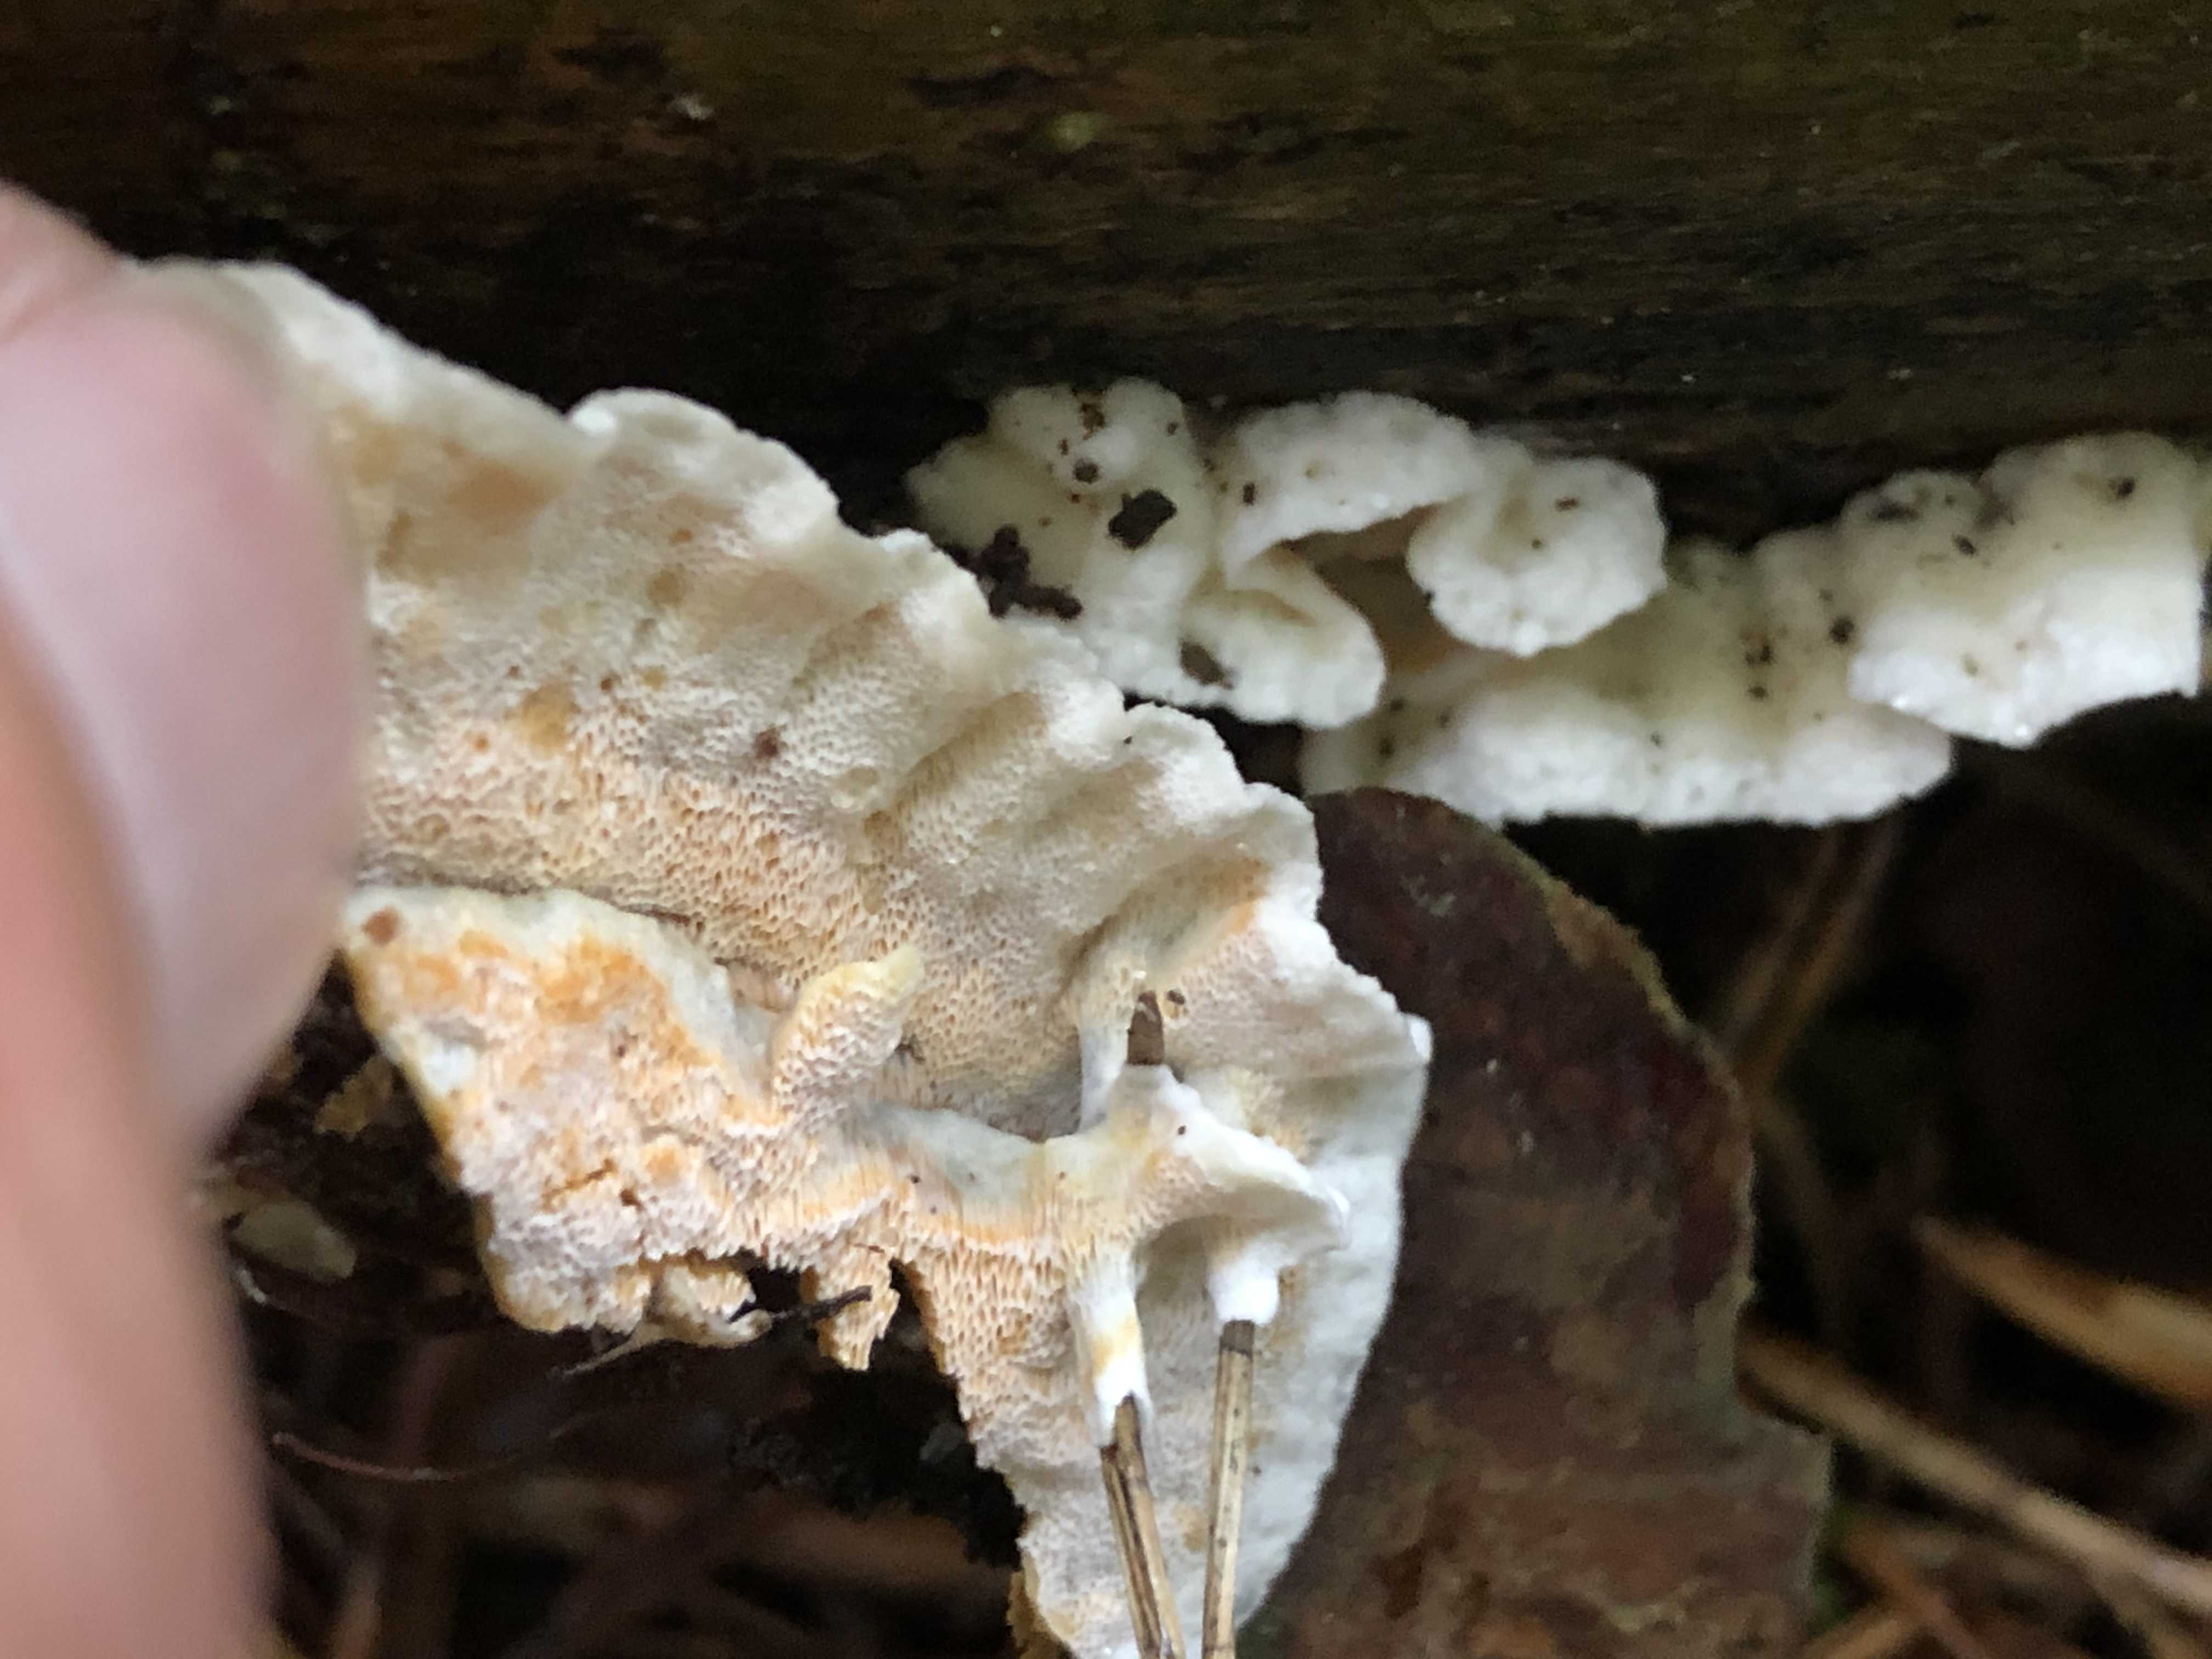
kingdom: Fungi
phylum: Basidiomycota
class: Agaricomycetes
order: Polyporales
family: Incrustoporiaceae
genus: Skeletocutis
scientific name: Skeletocutis amorpha
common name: orange krystalporesvamp
